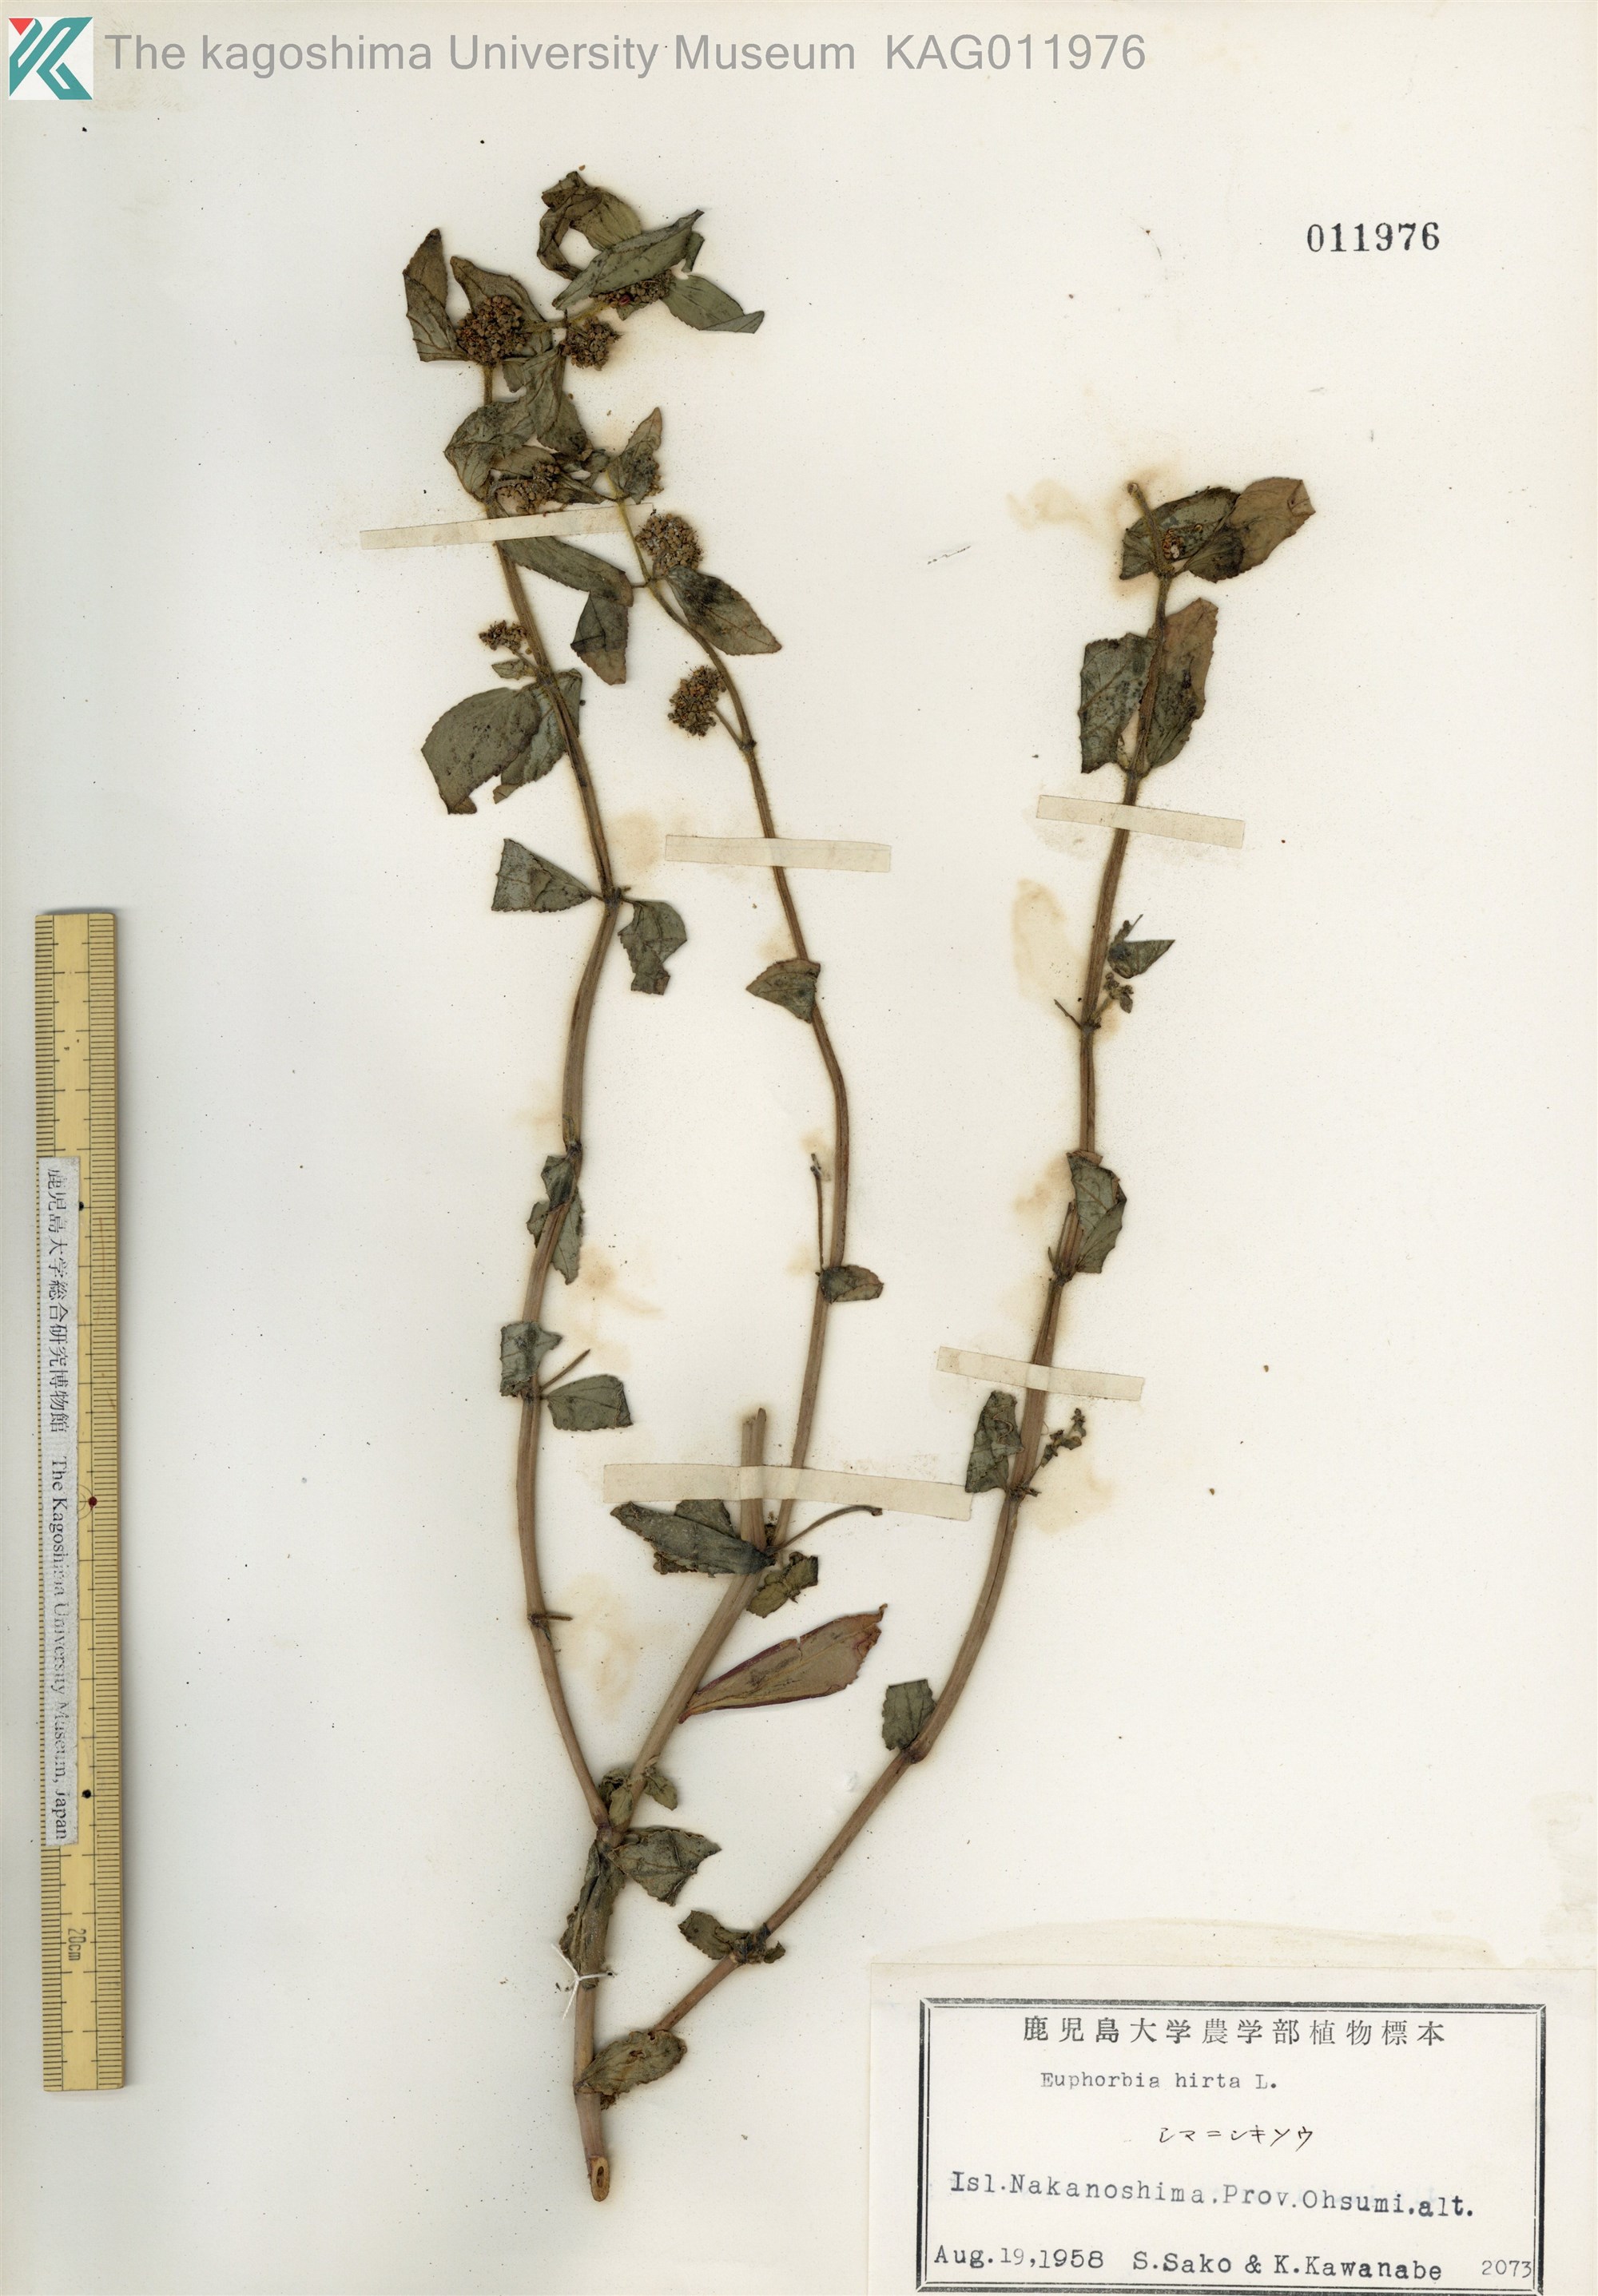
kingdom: Plantae
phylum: Tracheophyta
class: Magnoliopsida
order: Malpighiales
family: Euphorbiaceae
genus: Euphorbia
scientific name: Euphorbia hirta
